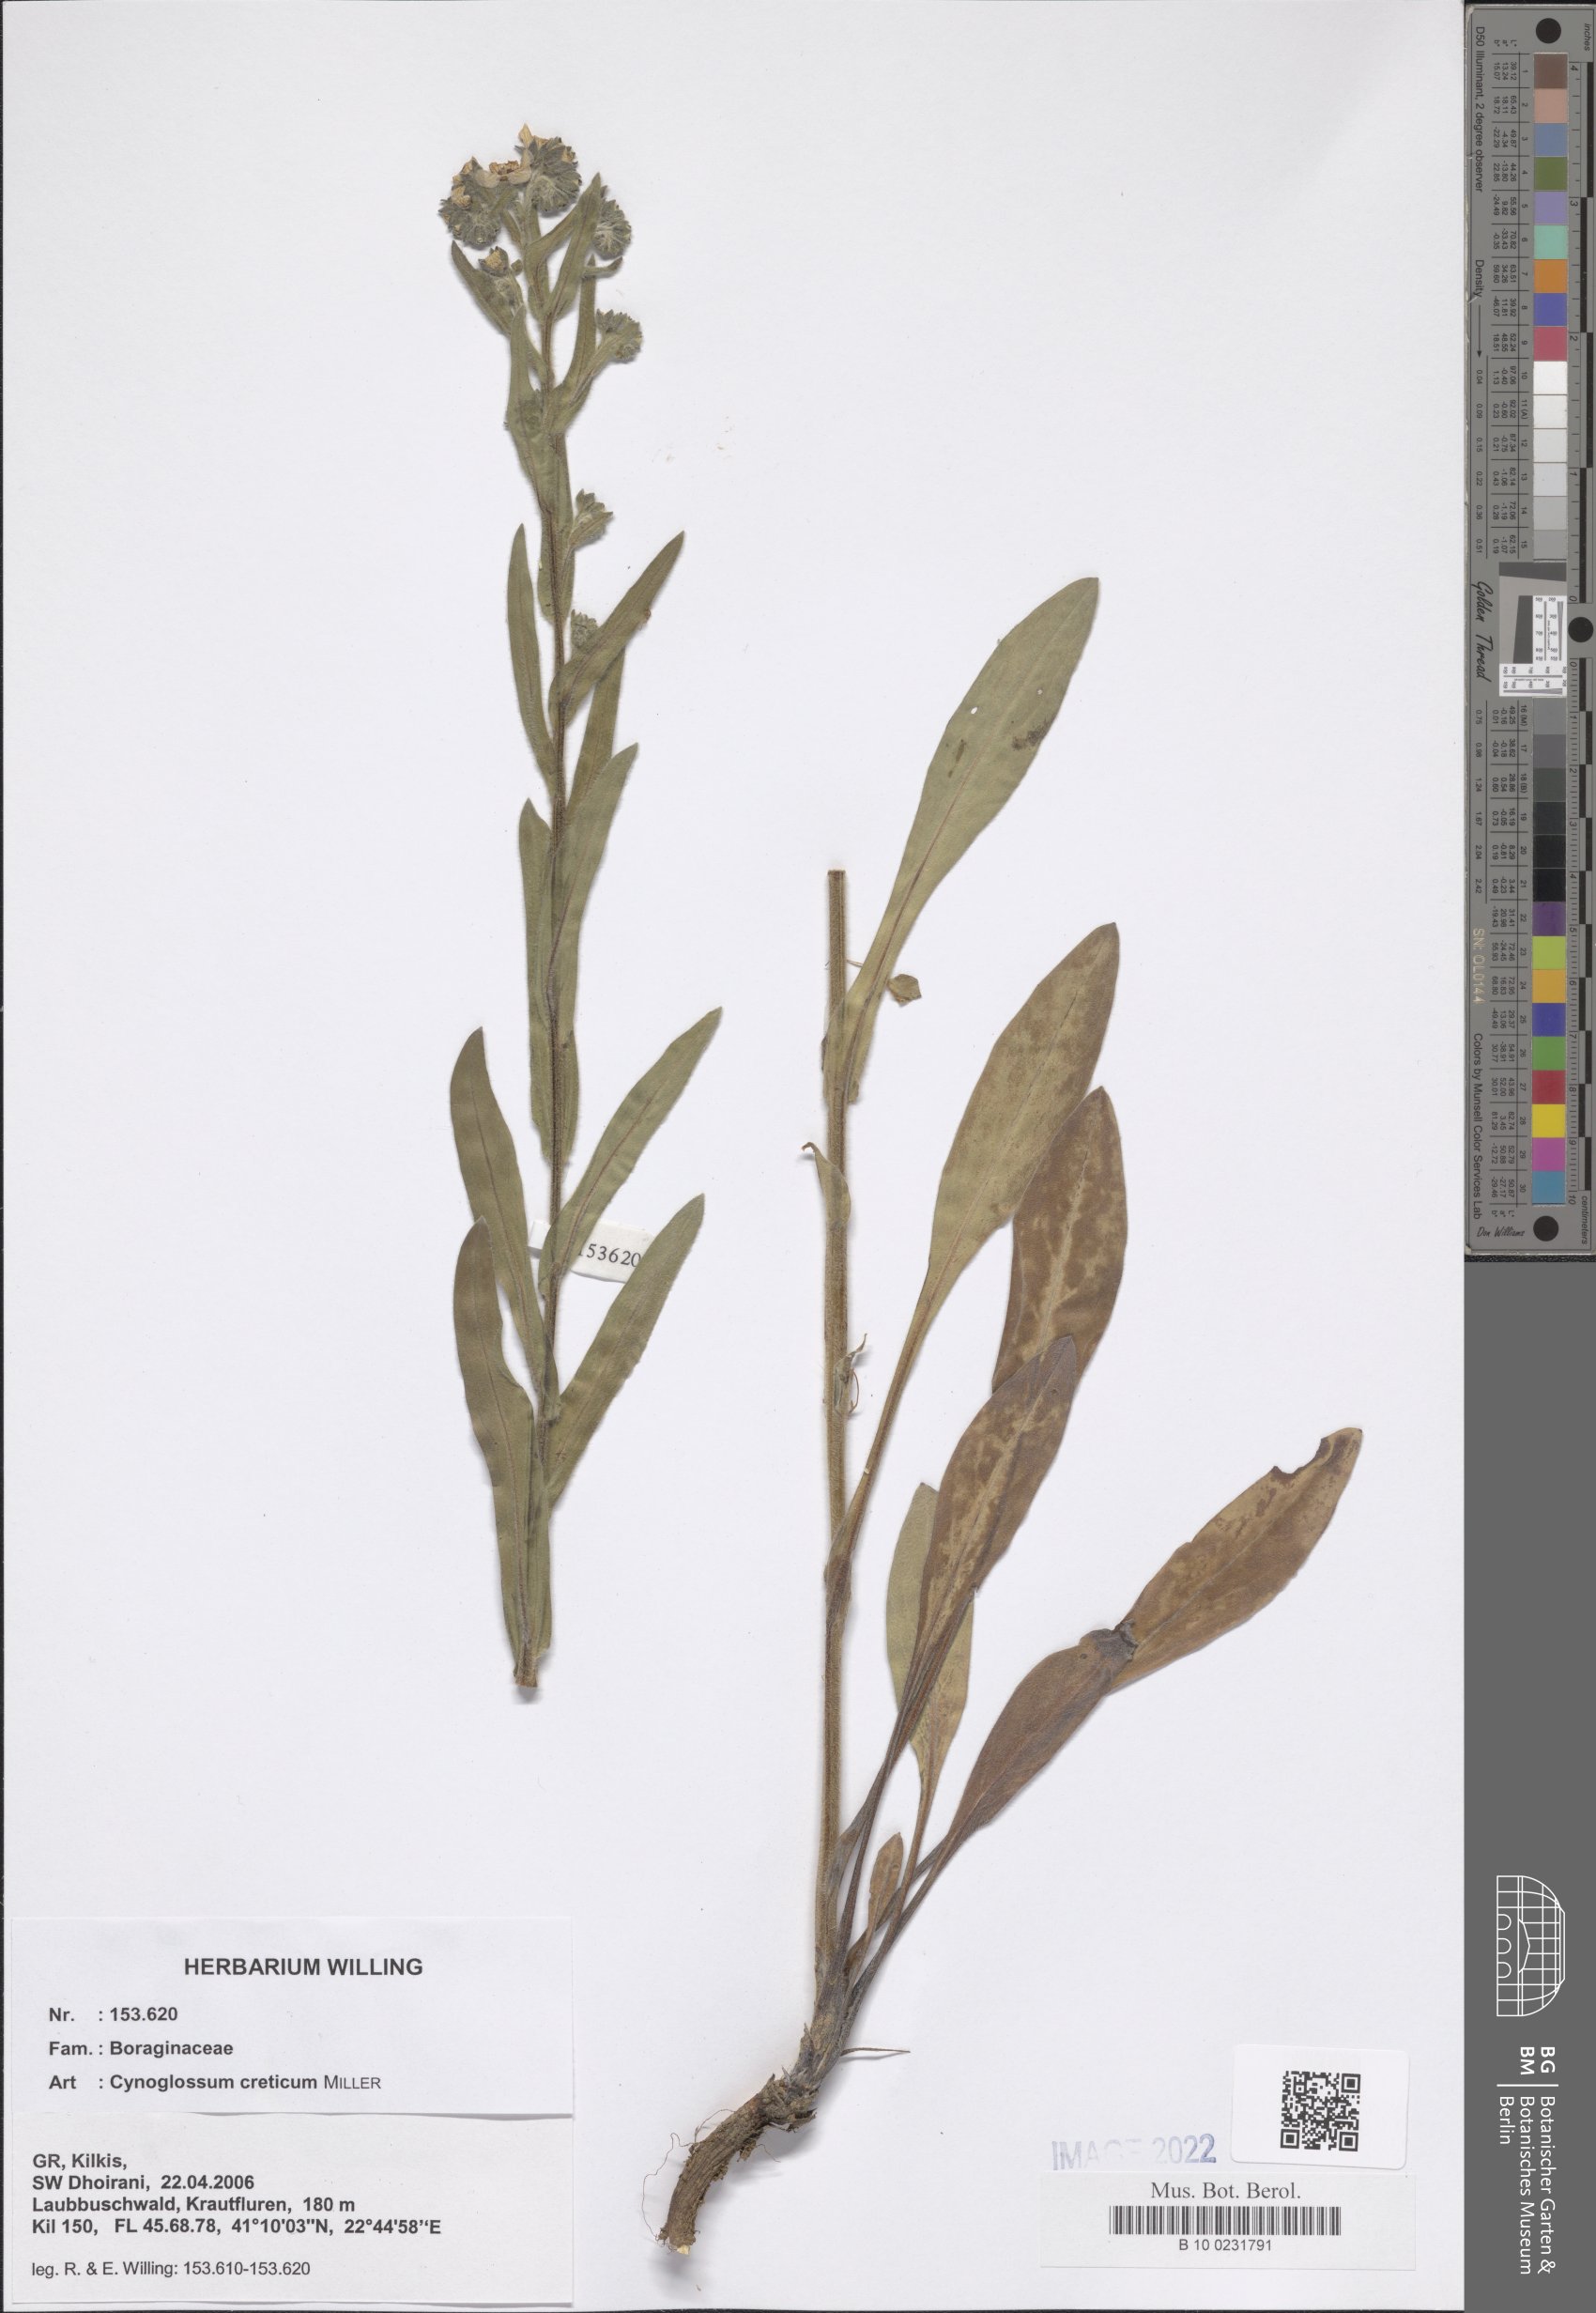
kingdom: Plantae
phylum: Tracheophyta
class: Magnoliopsida
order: Boraginales
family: Boraginaceae
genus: Cynoglossum
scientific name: Cynoglossum creticum
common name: Blue hound's tongue
